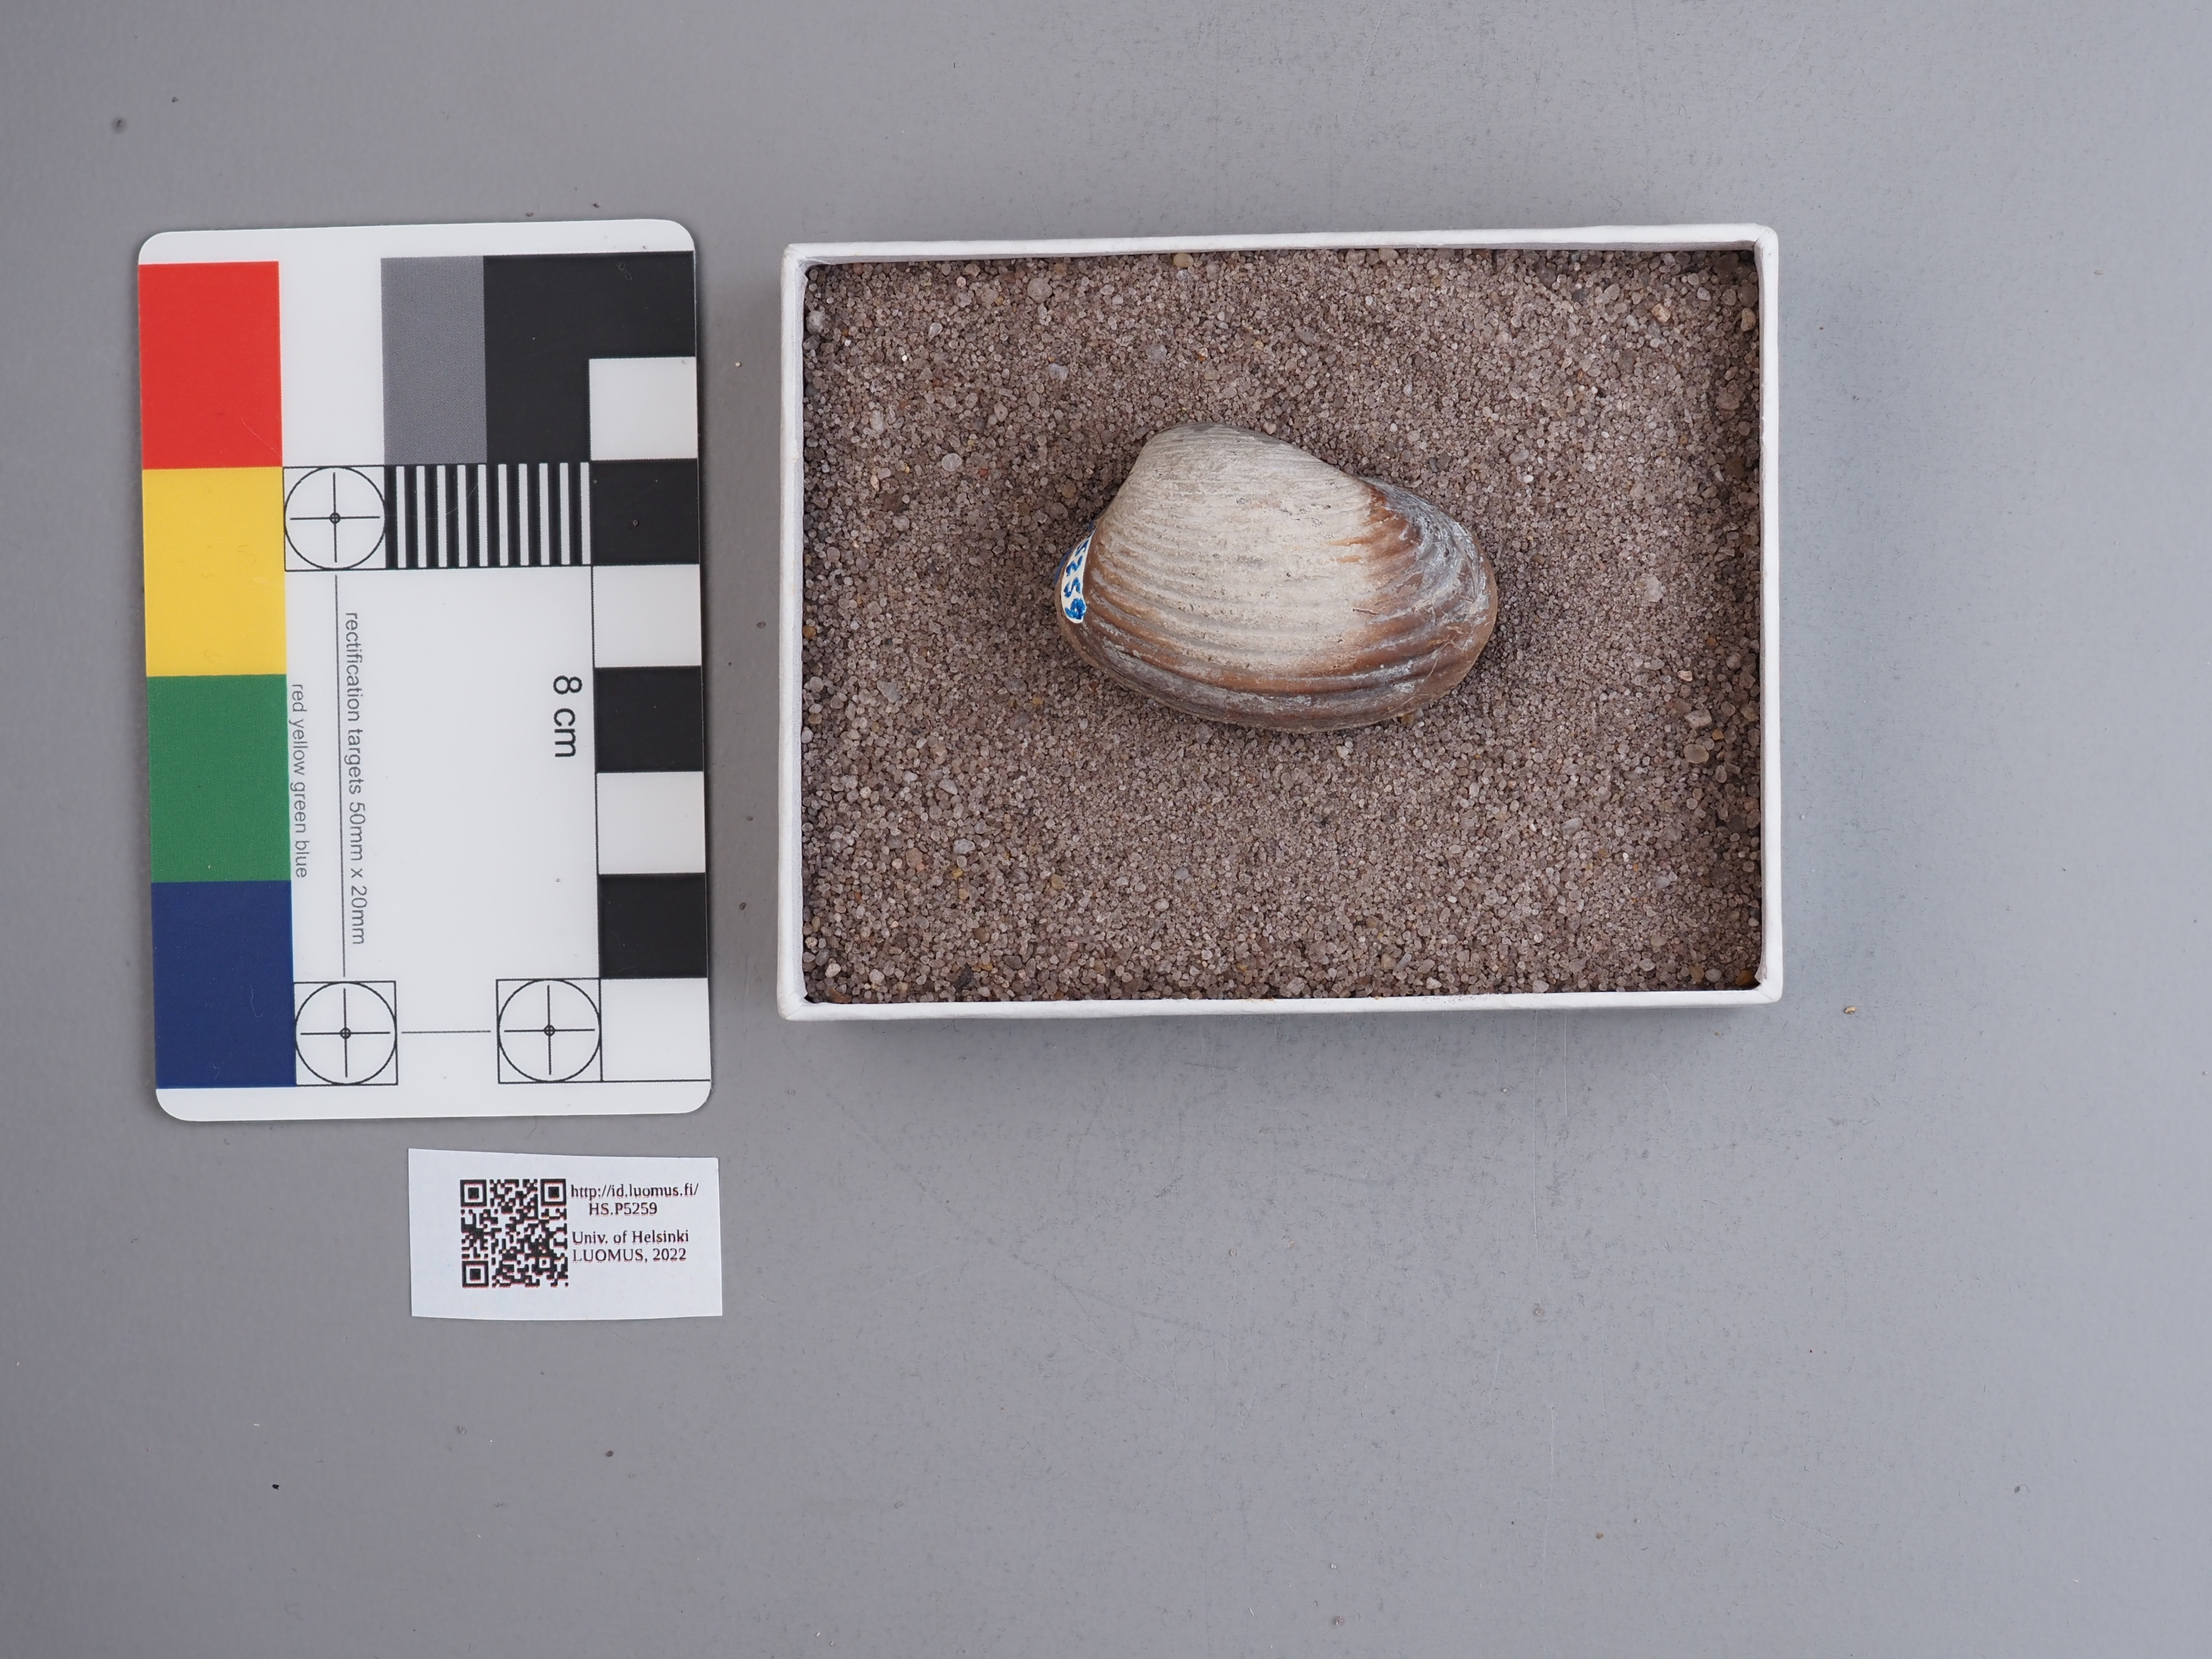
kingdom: Animalia
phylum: Mollusca
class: Bivalvia
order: Myida
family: Pleuromyidae
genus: Pleuromya
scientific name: Pleuromya
